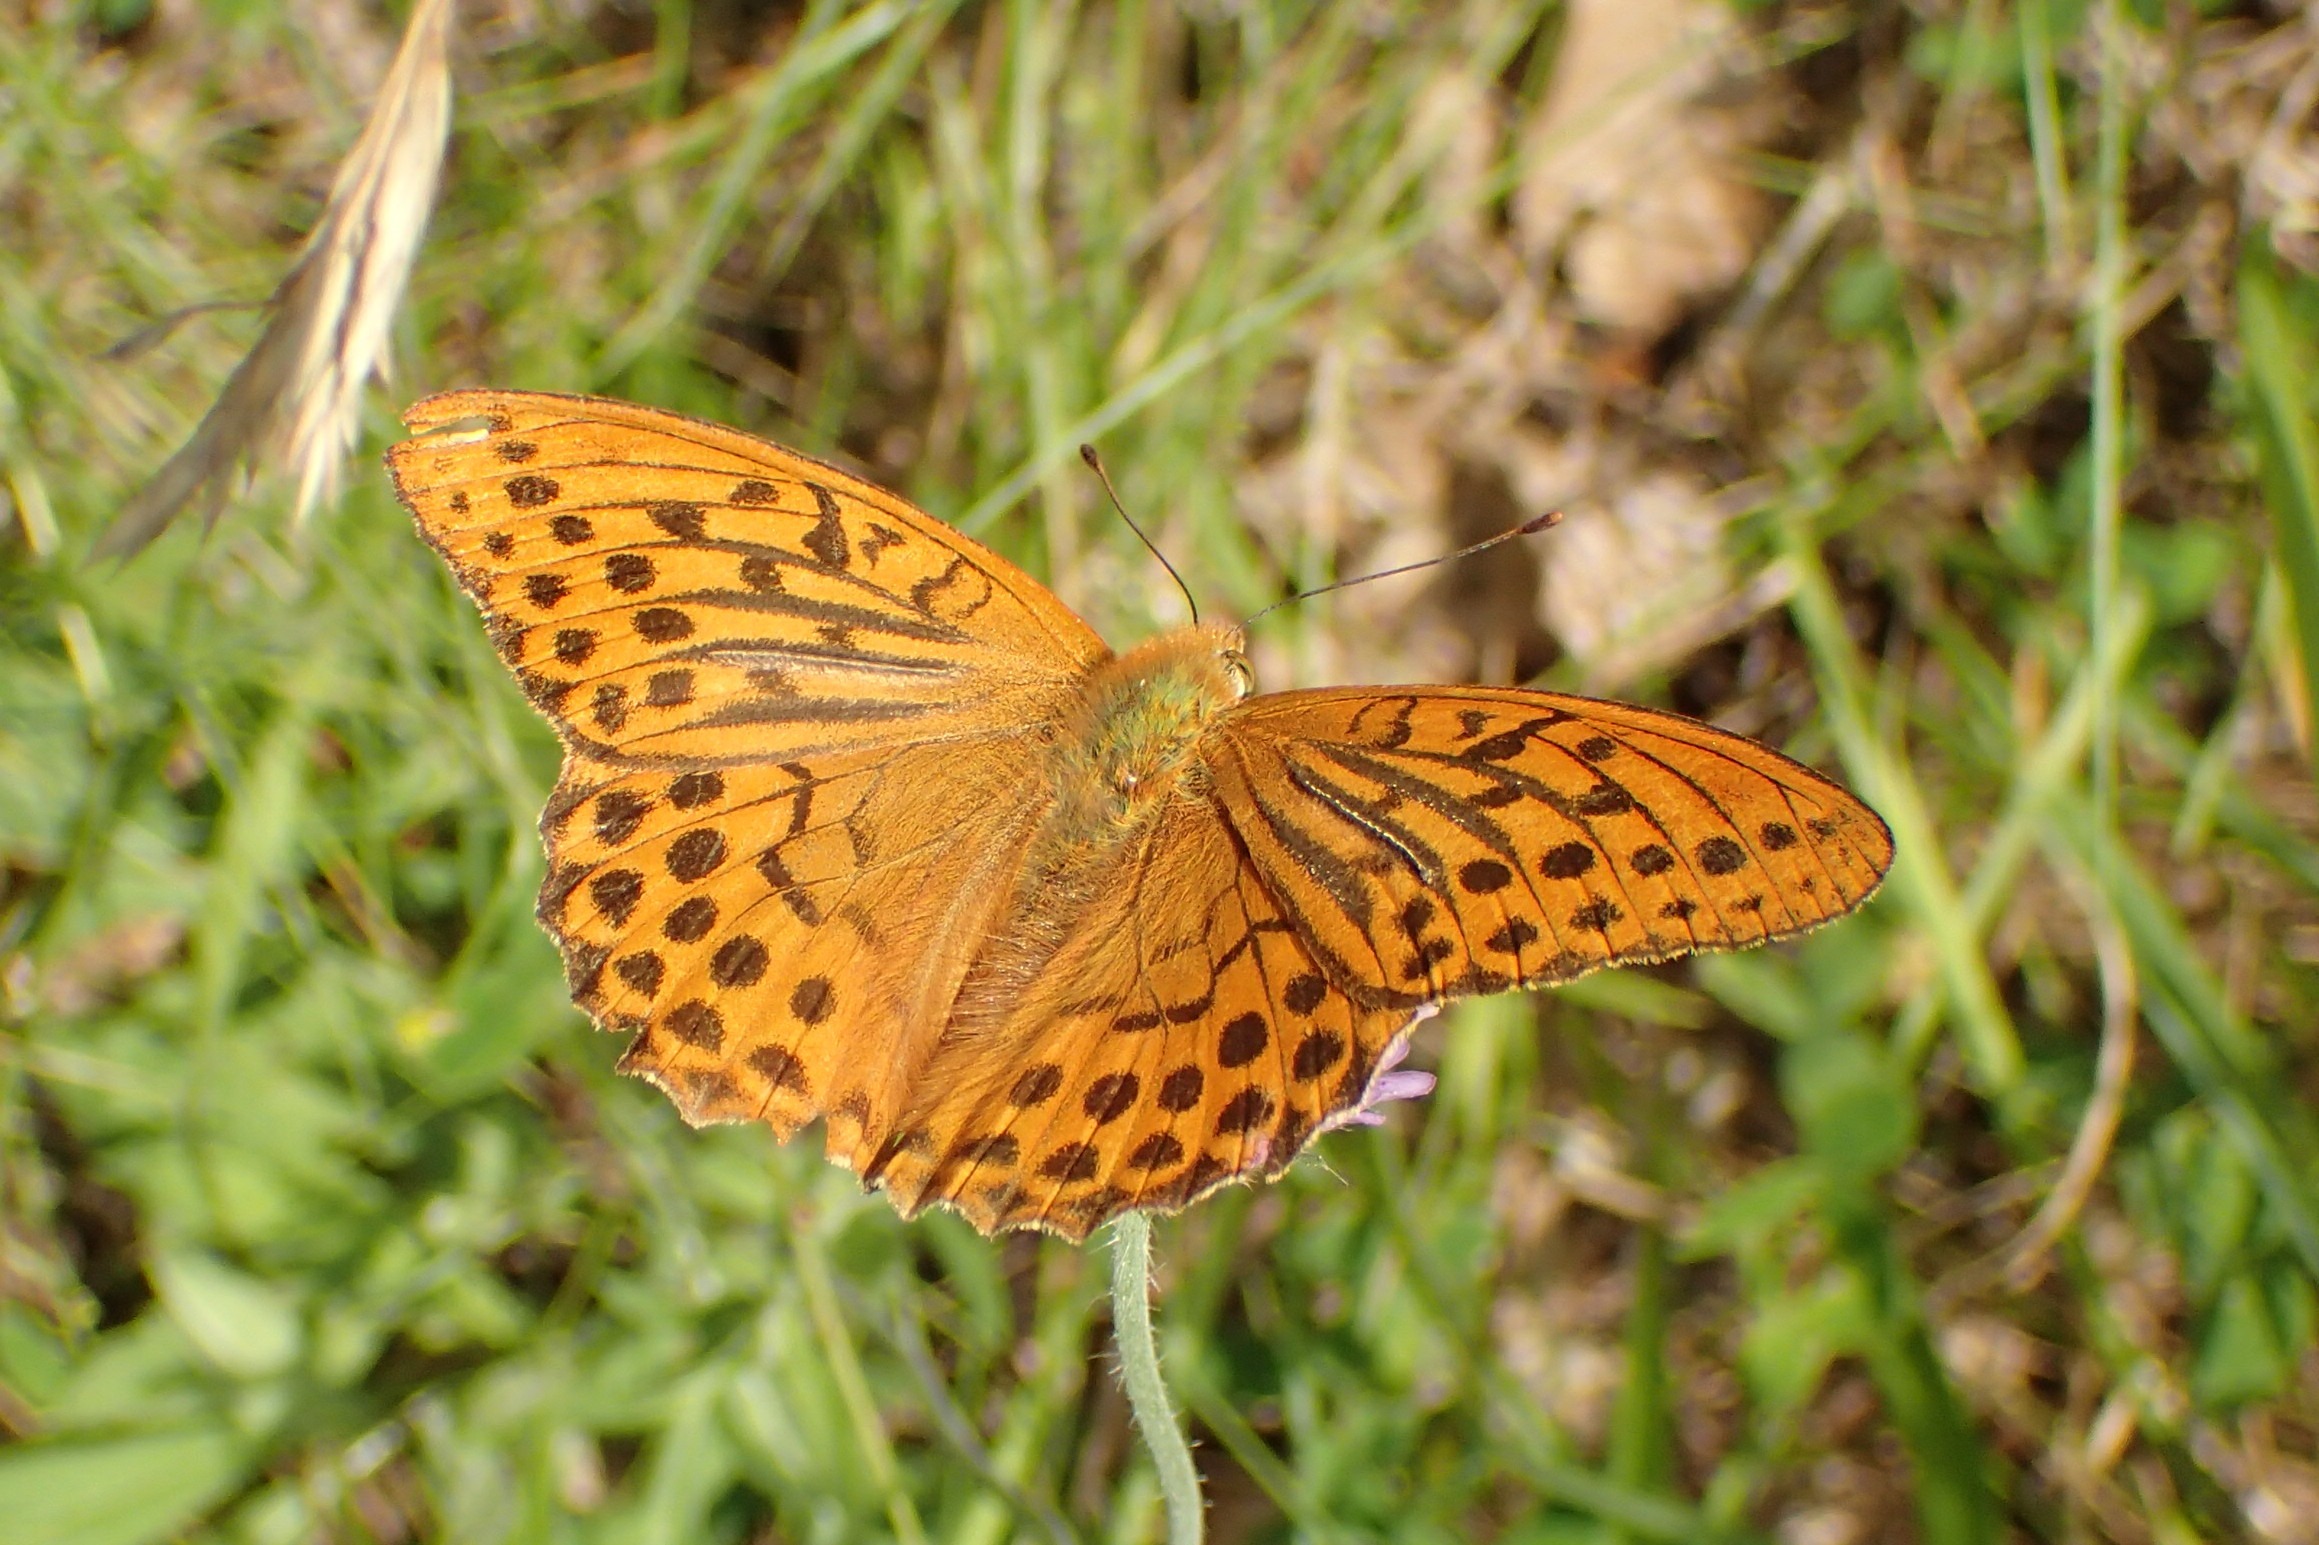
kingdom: Animalia
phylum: Arthropoda
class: Insecta
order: Lepidoptera
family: Nymphalidae
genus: Argynnis
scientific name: Argynnis paphia
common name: Kejserkåbe
